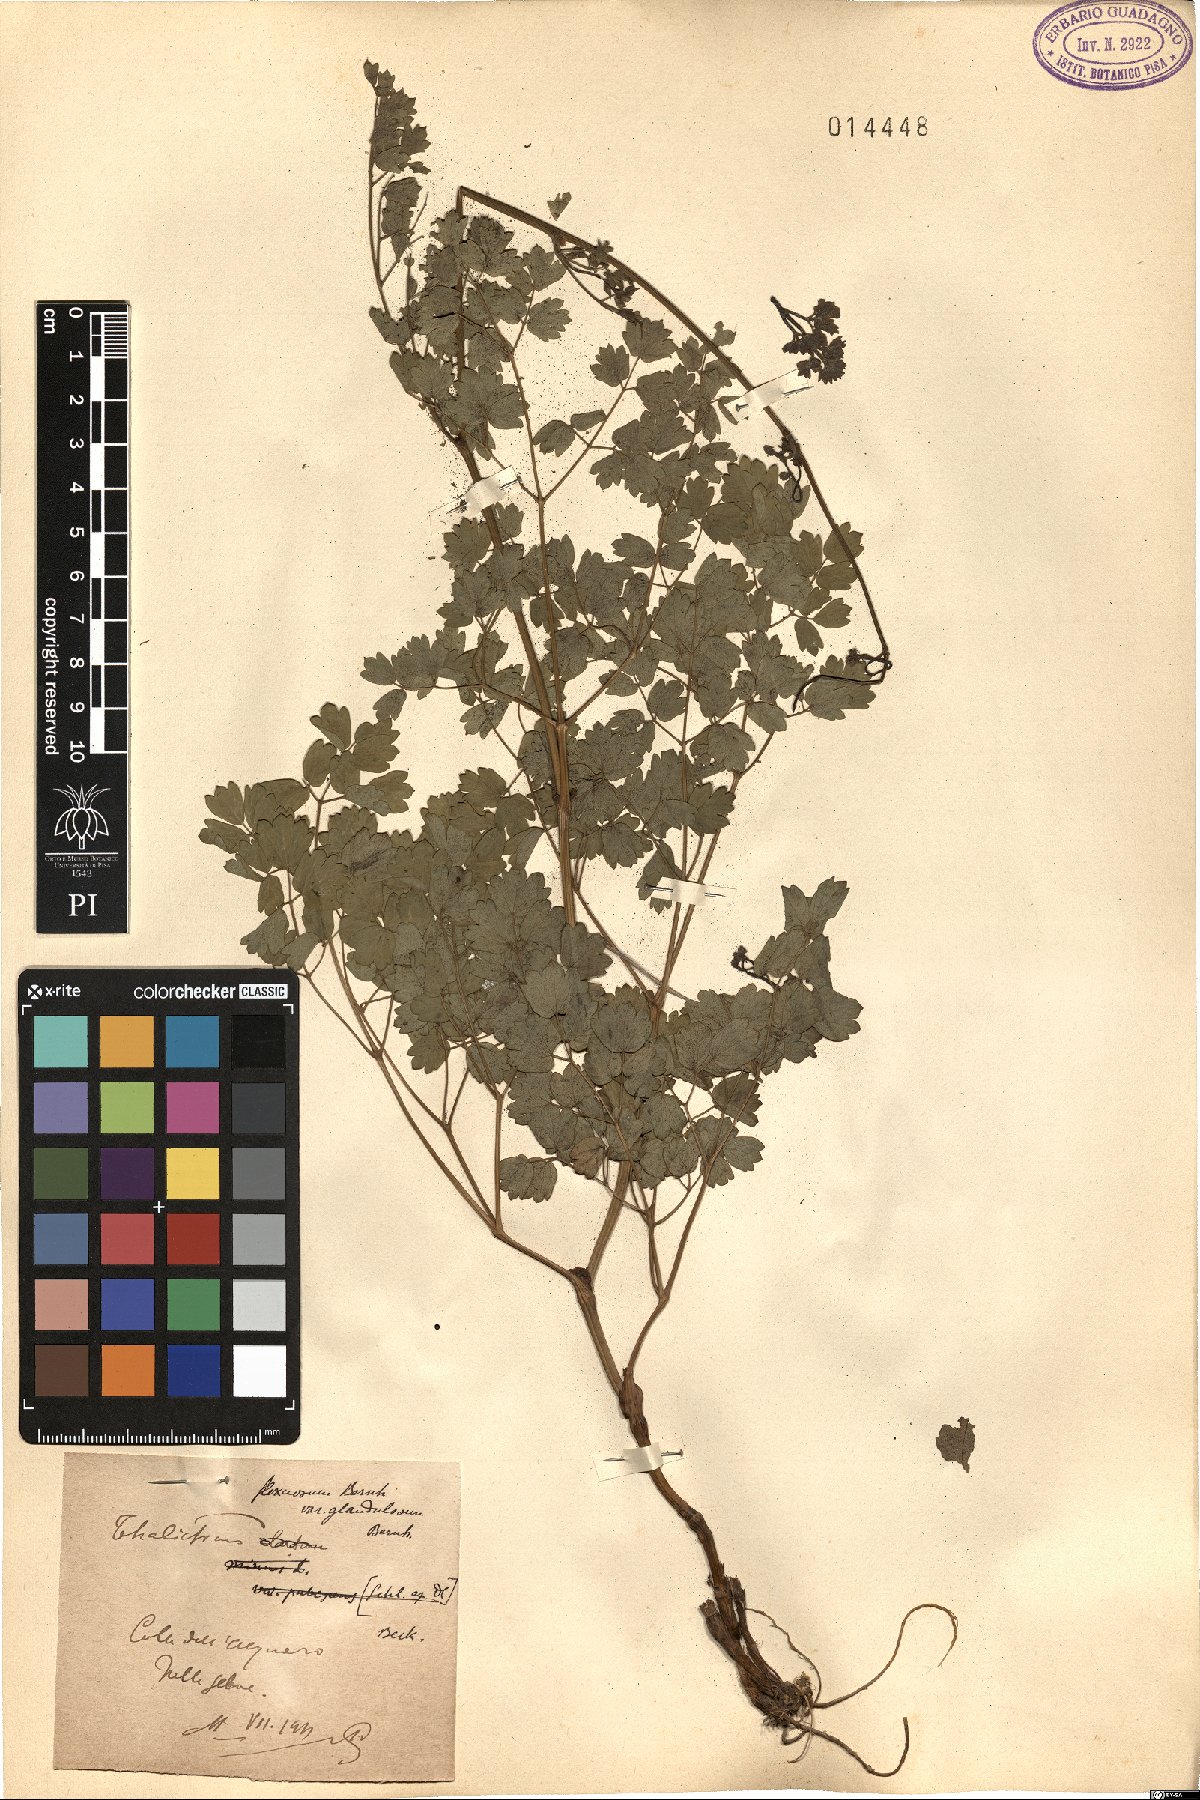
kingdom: Plantae
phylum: Tracheophyta
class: Magnoliopsida
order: Ranunculales
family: Ranunculaceae
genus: Thalictrum
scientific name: Thalictrum minus
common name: Lesser meadow-rue
